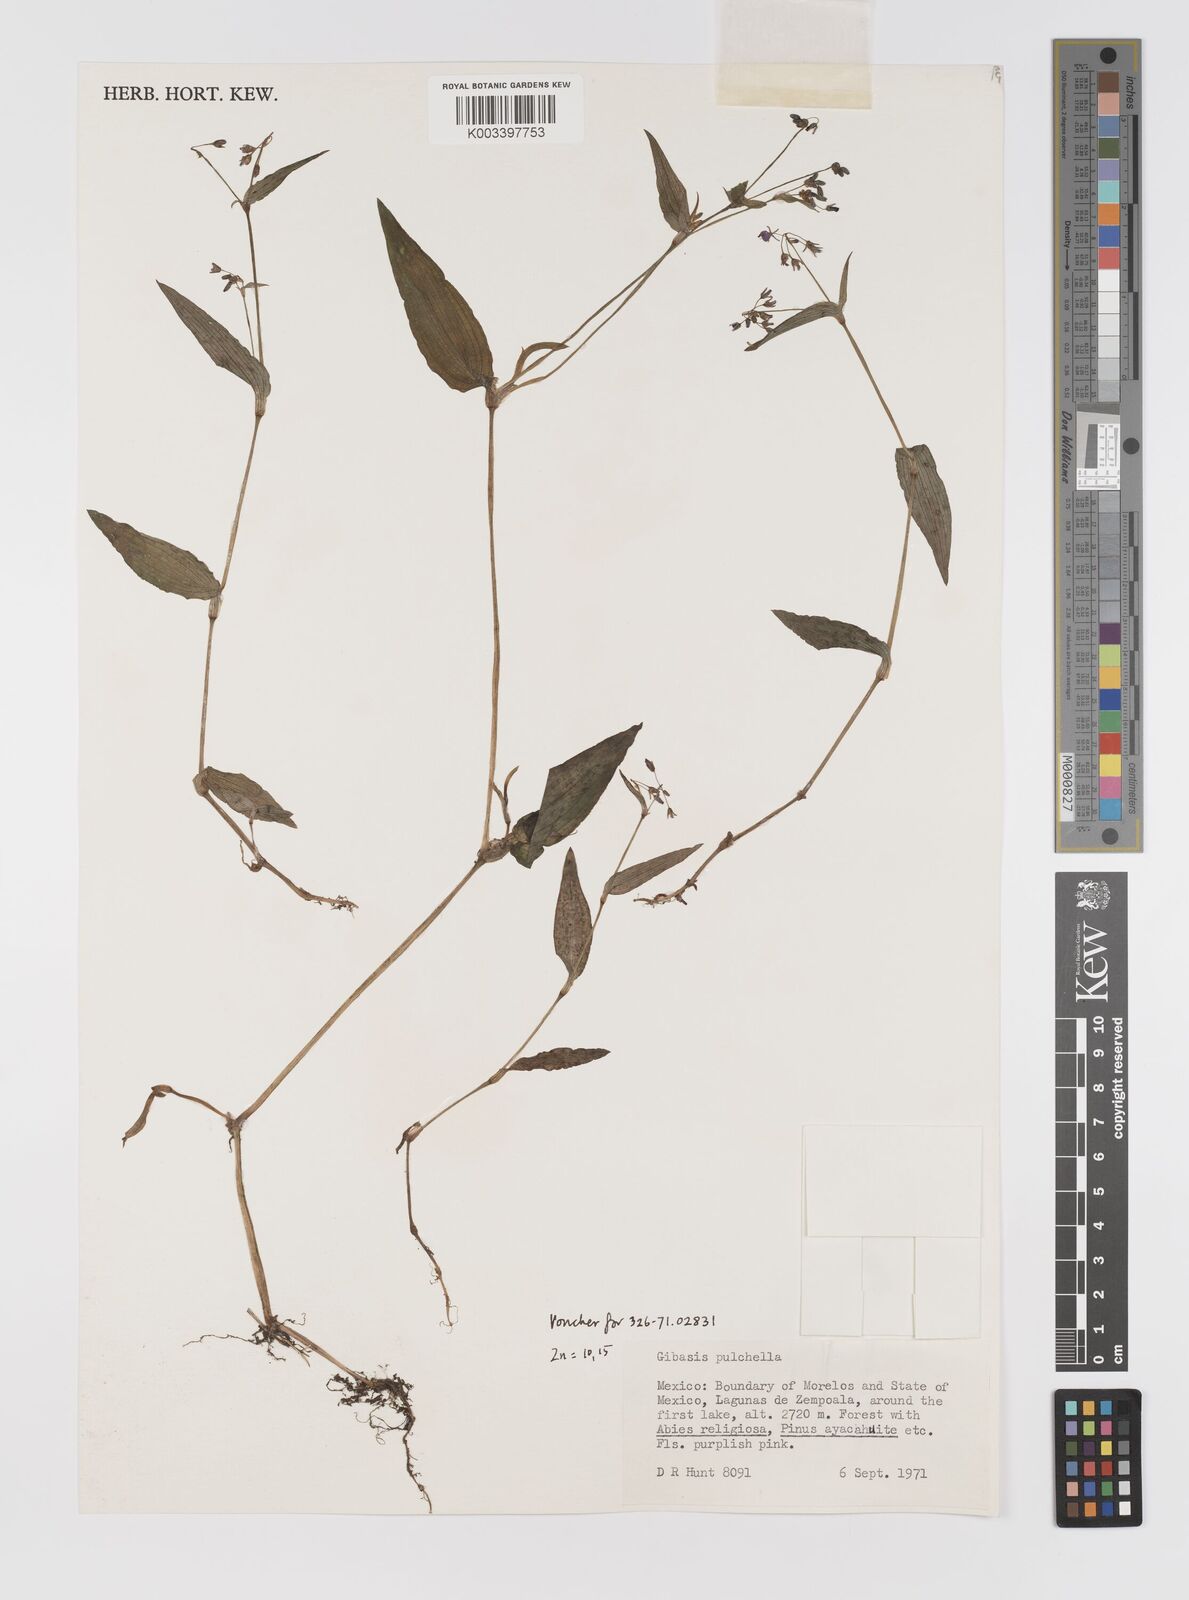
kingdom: Plantae
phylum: Tracheophyta
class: Liliopsida
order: Commelinales
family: Commelinaceae
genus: Gibasis
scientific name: Gibasis pulchella
